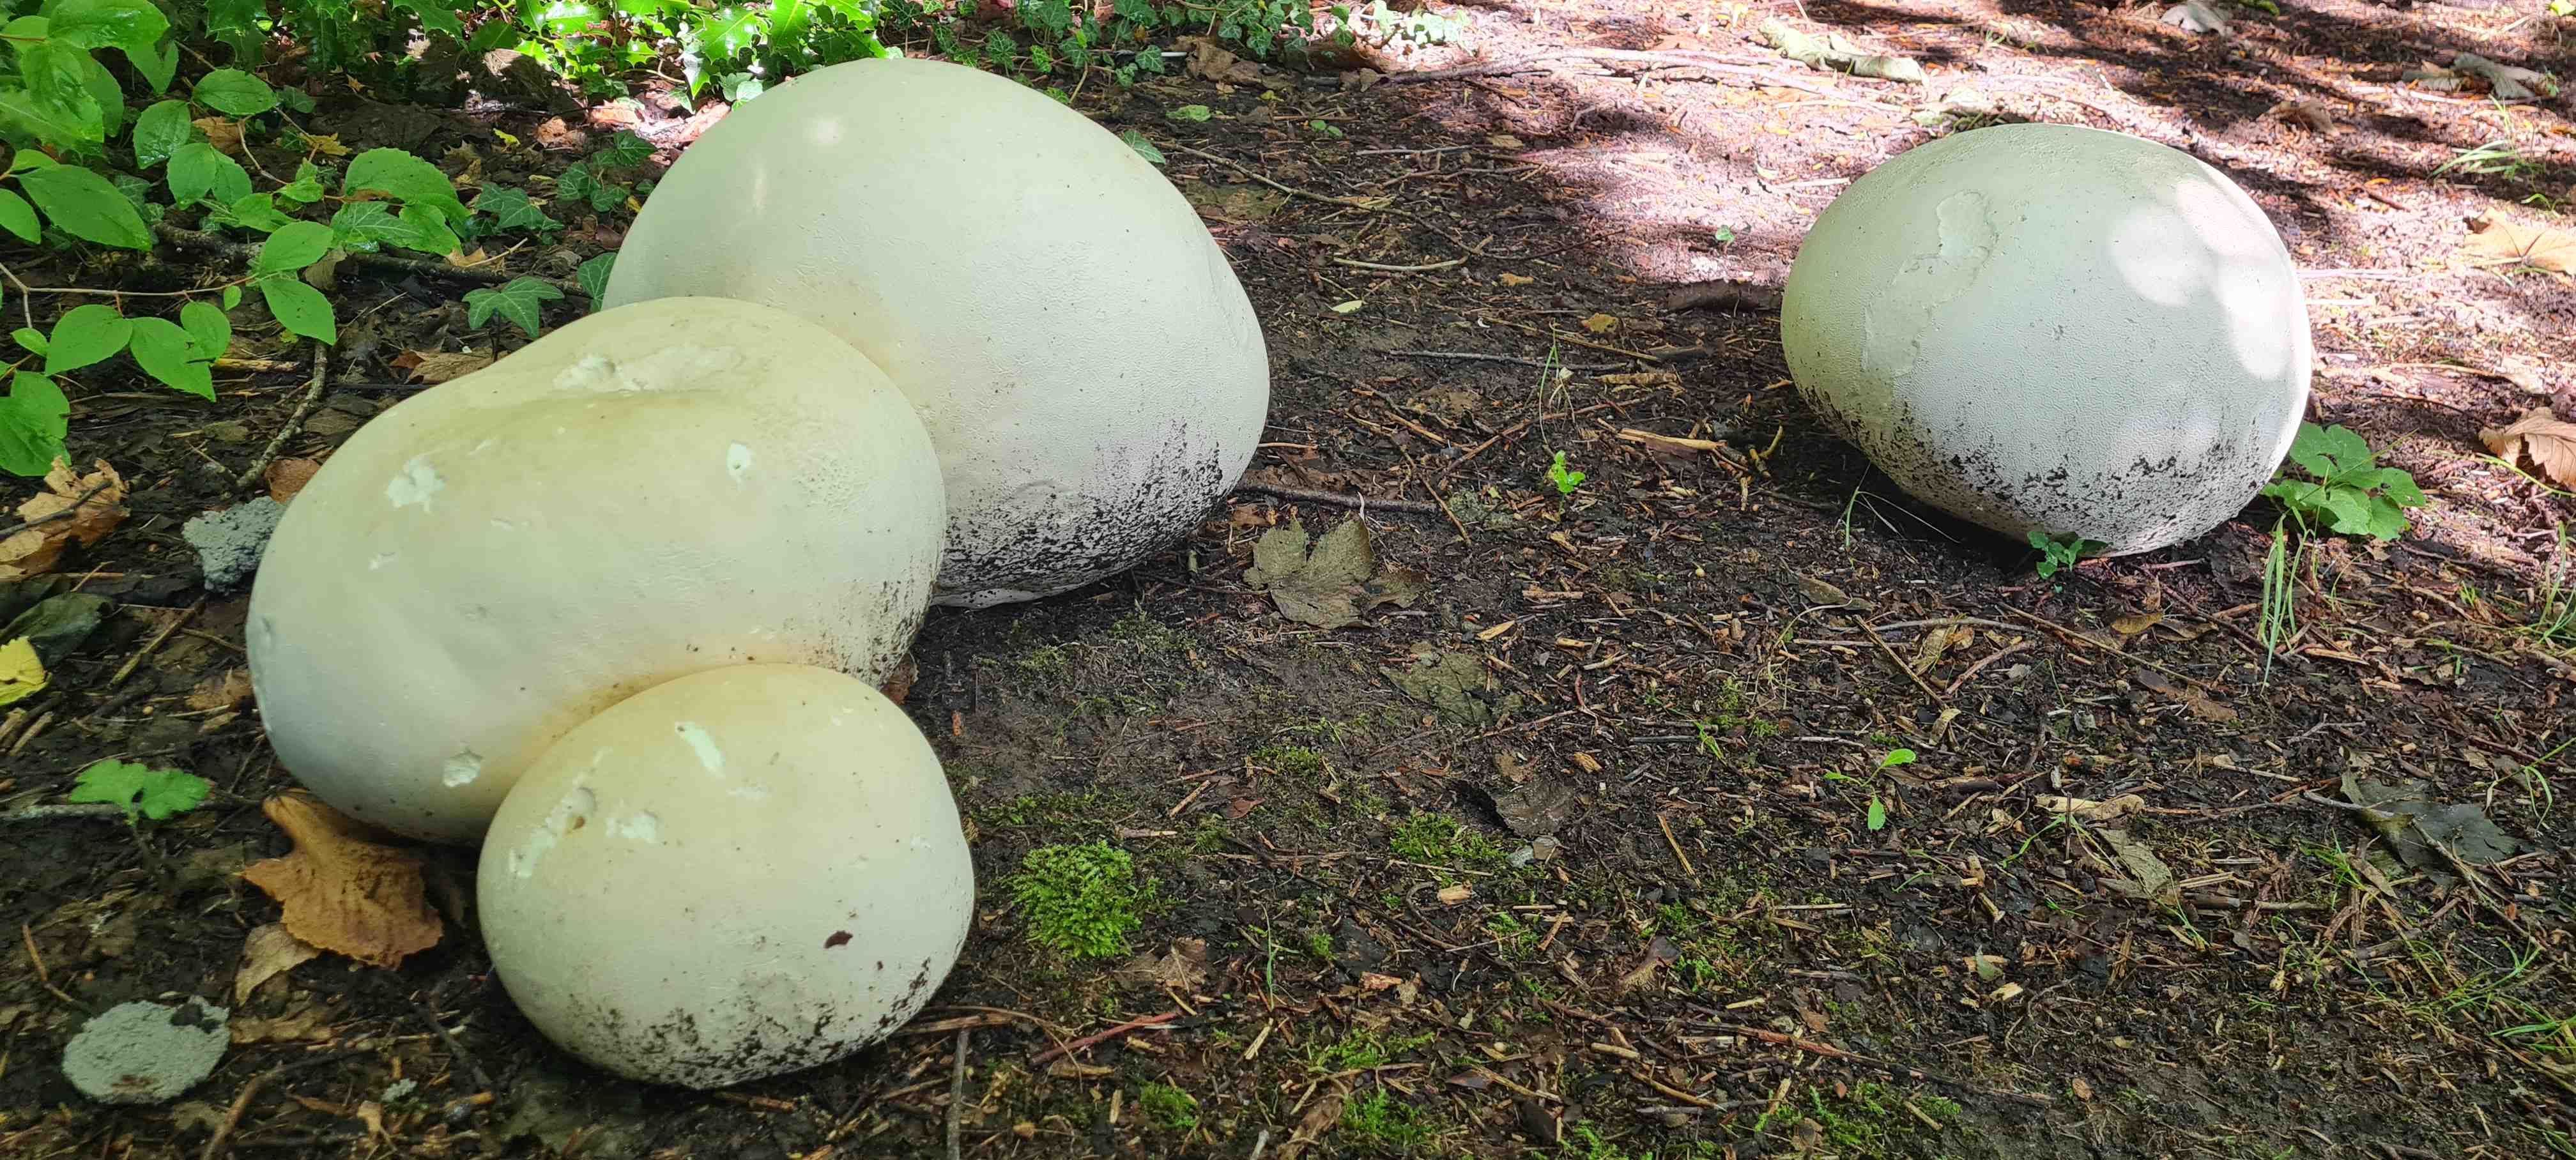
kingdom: Fungi
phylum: Basidiomycota
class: Agaricomycetes
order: Agaricales
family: Lycoperdaceae
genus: Calvatia
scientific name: Calvatia gigantea
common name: kæmpestøvbold
